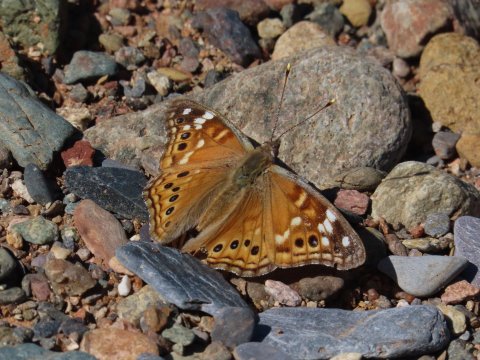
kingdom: Animalia
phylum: Arthropoda
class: Insecta
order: Lepidoptera
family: Nymphalidae
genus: Asterocampa
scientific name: Asterocampa leilia
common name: Empress Leilia
